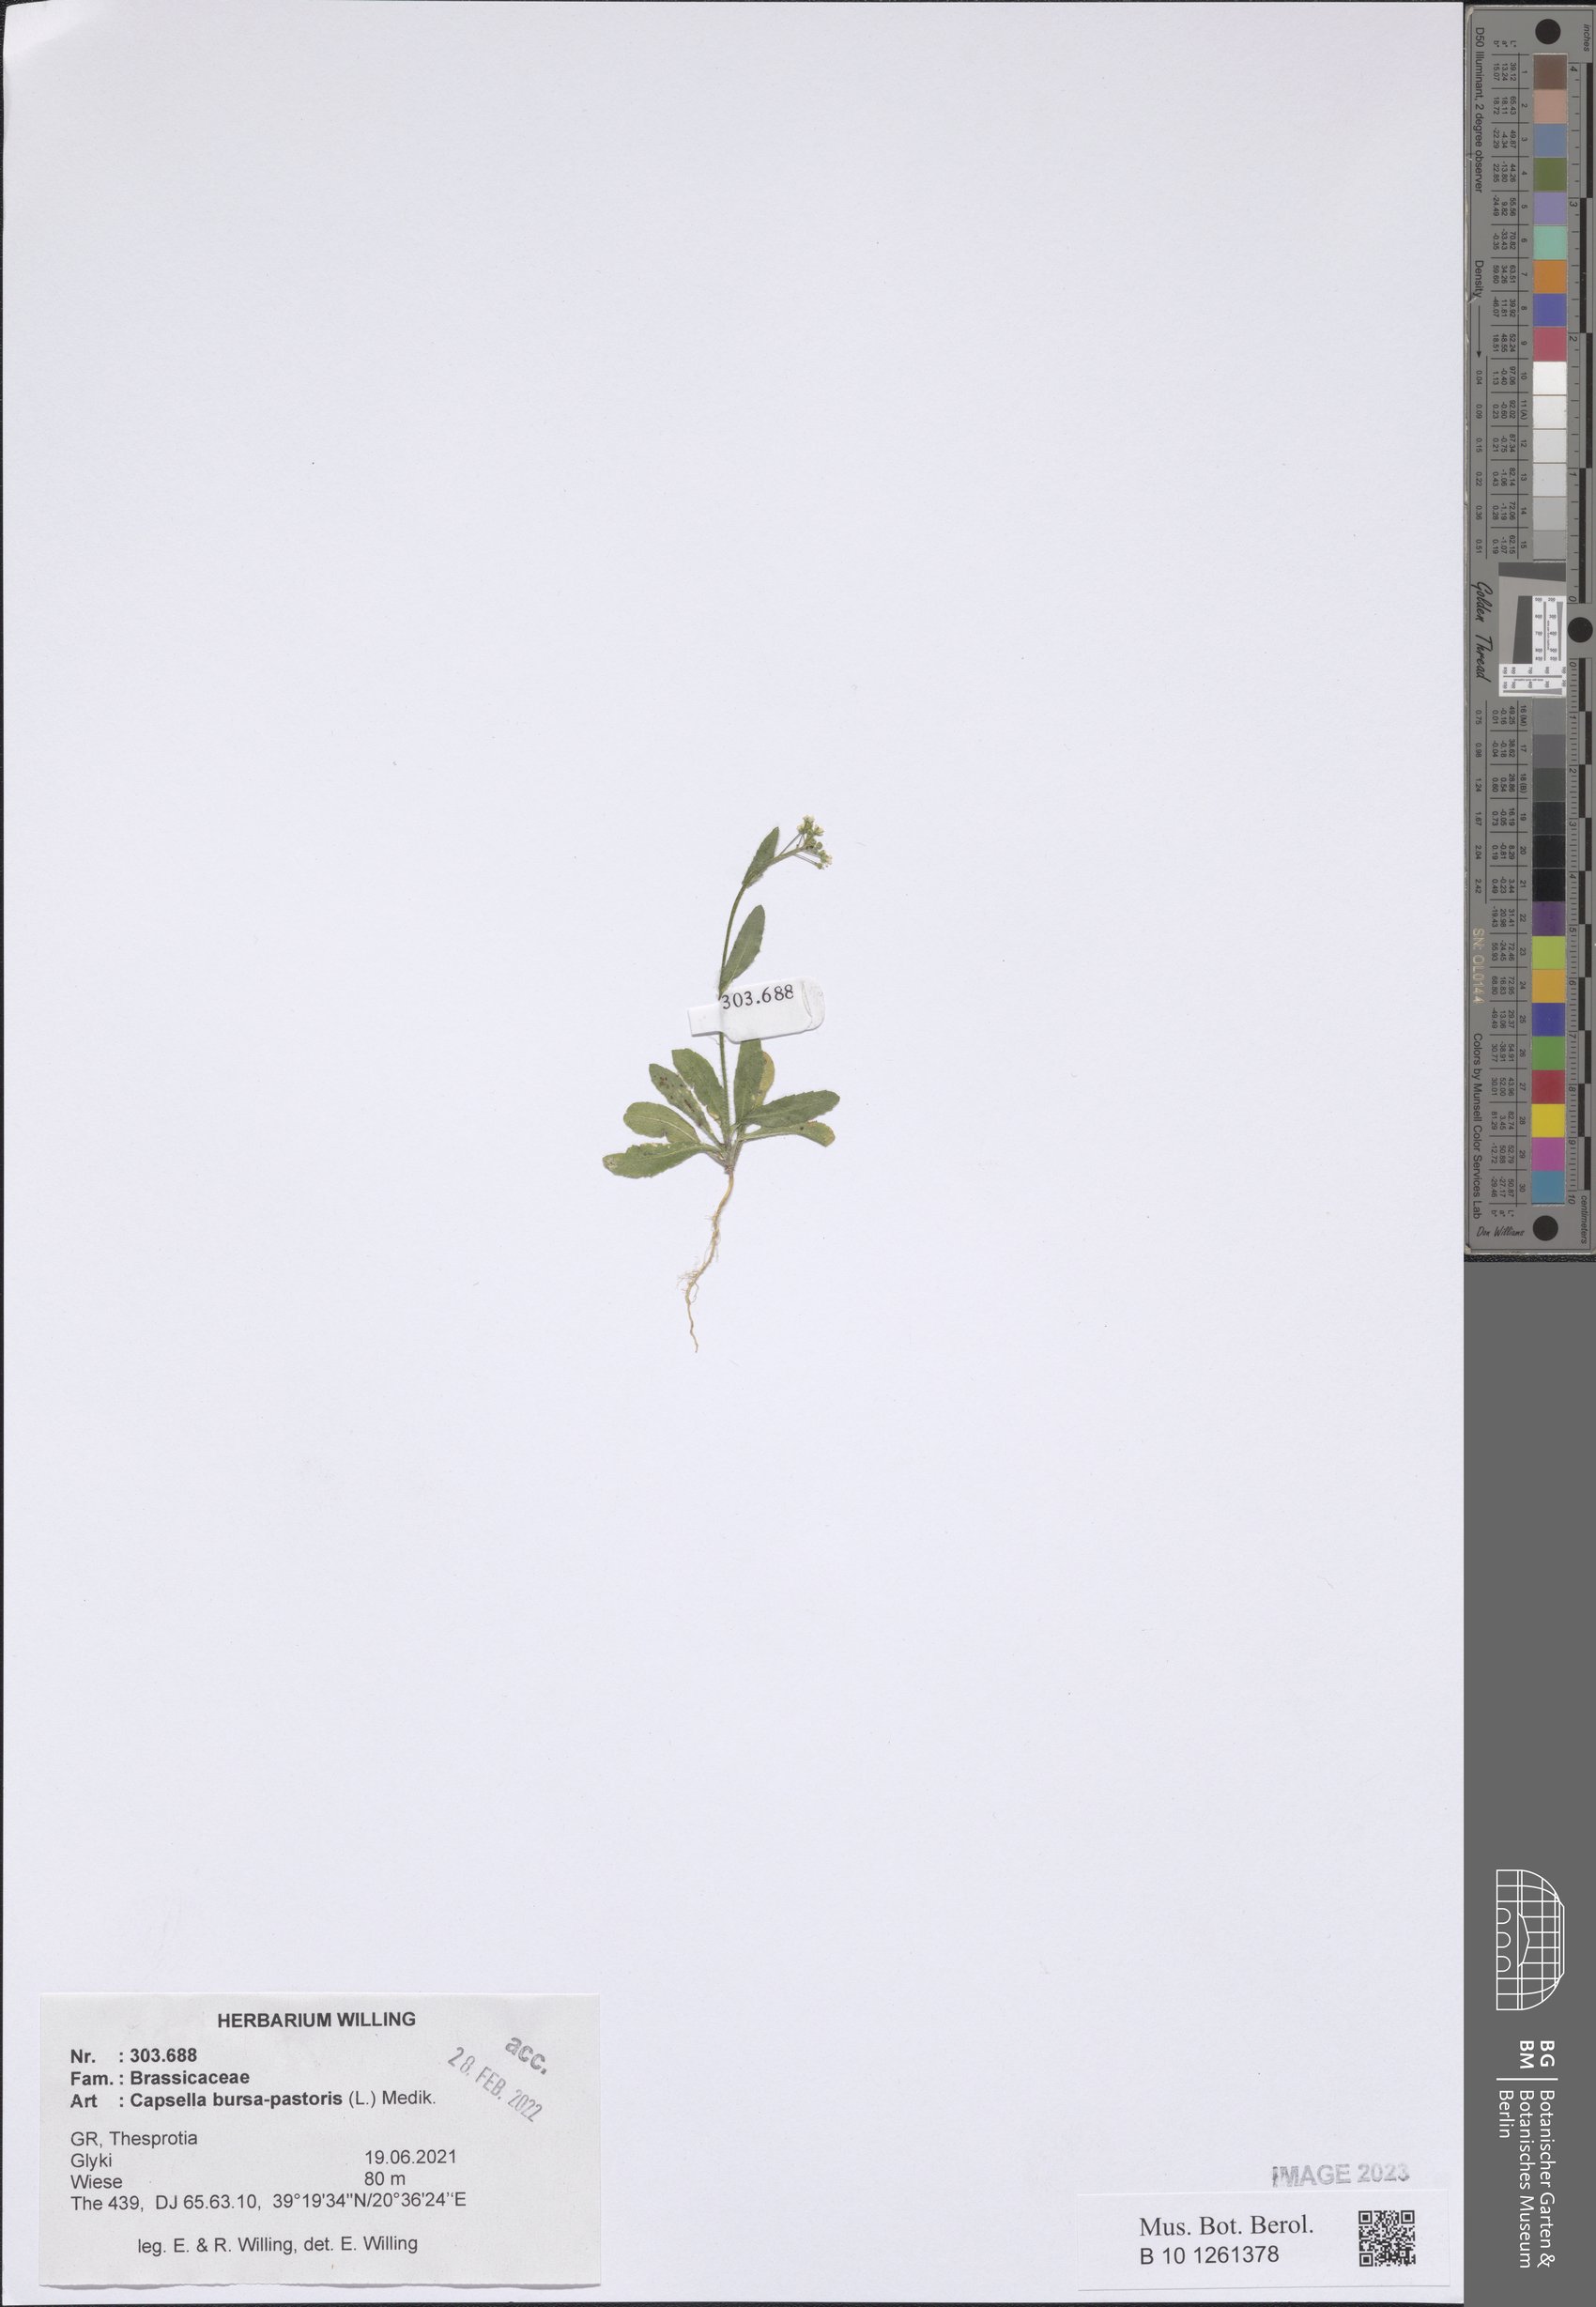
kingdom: Plantae
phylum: Tracheophyta
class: Magnoliopsida
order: Brassicales
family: Brassicaceae
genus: Capsella
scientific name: Capsella bursa-pastoris
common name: Shepherd's purse
